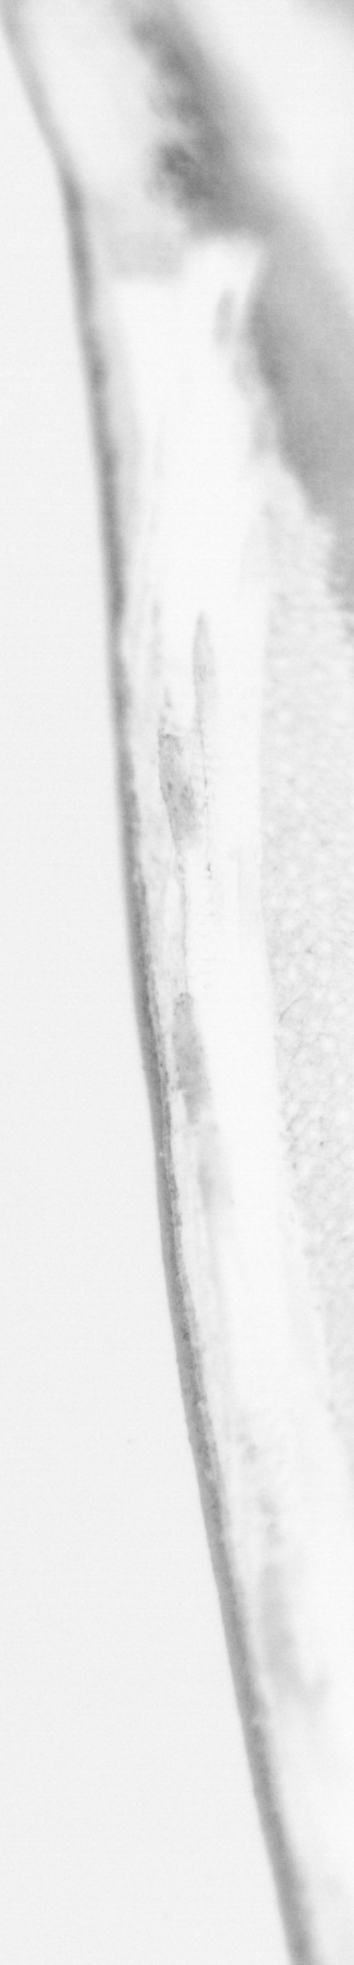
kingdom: Animalia
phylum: Chordata
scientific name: Chordata
